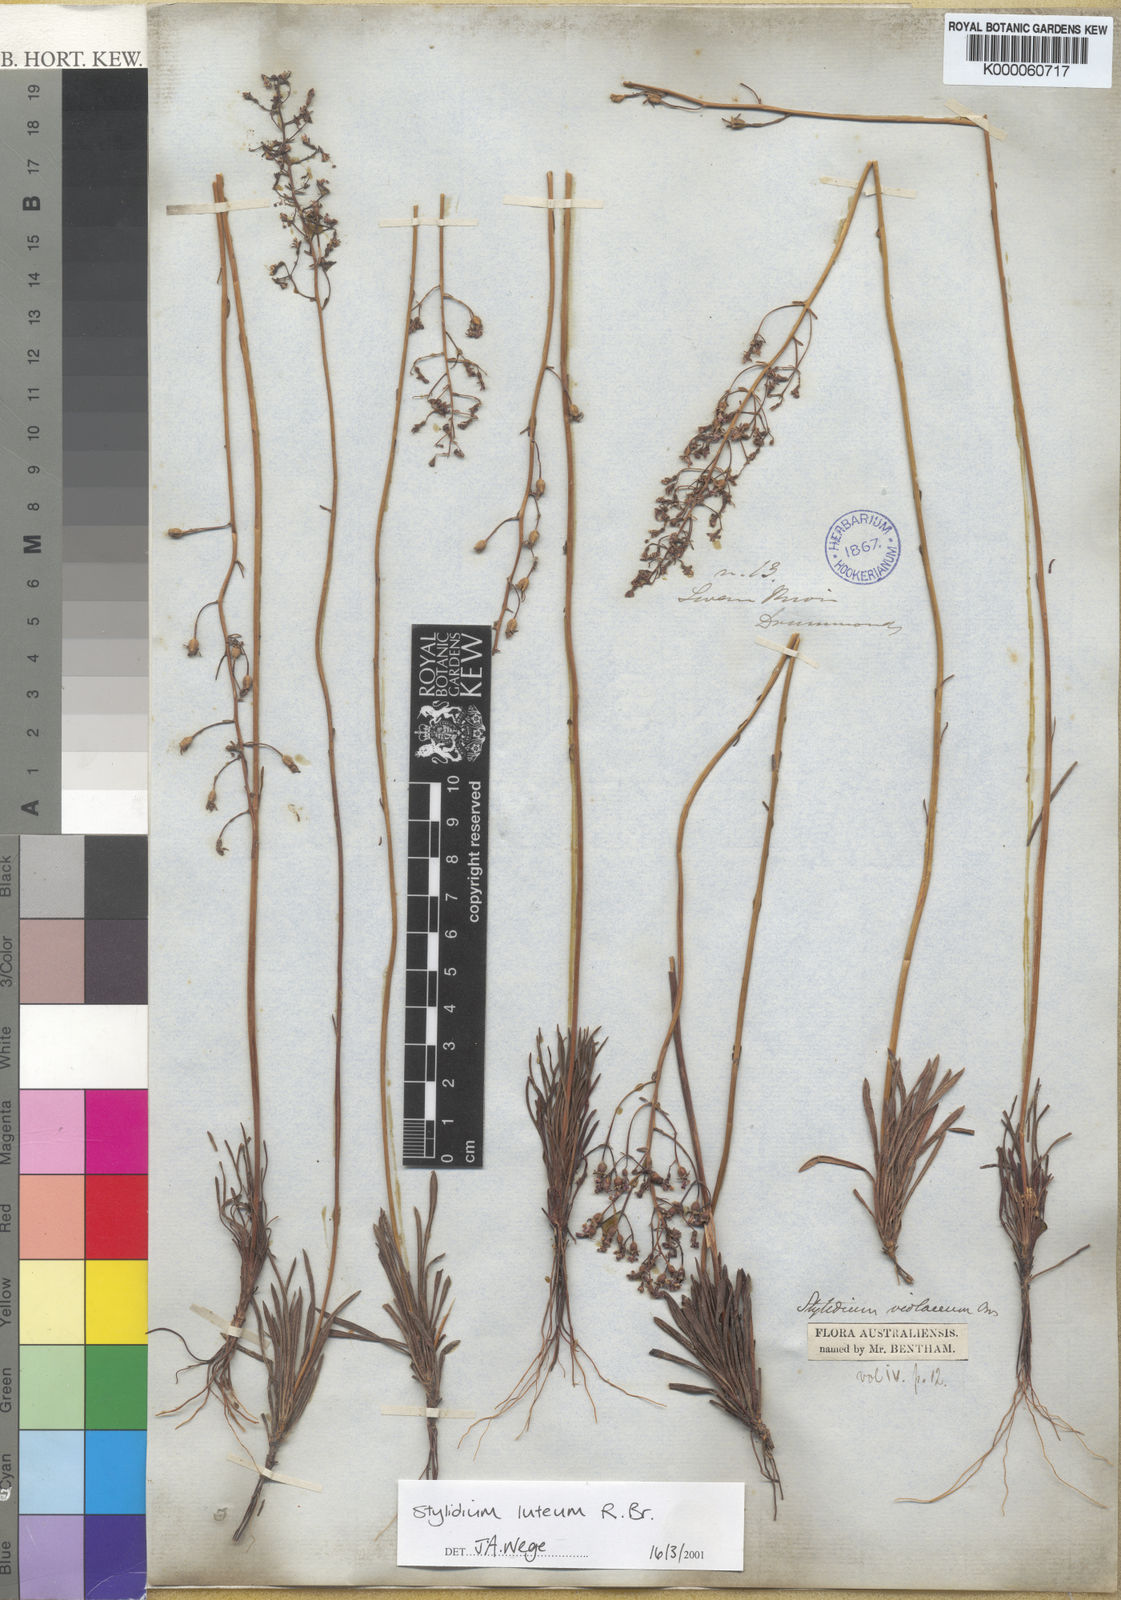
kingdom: Plantae
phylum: Tracheophyta
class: Magnoliopsida
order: Asterales
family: Stylidiaceae
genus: Stylidium
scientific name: Stylidium luteum
